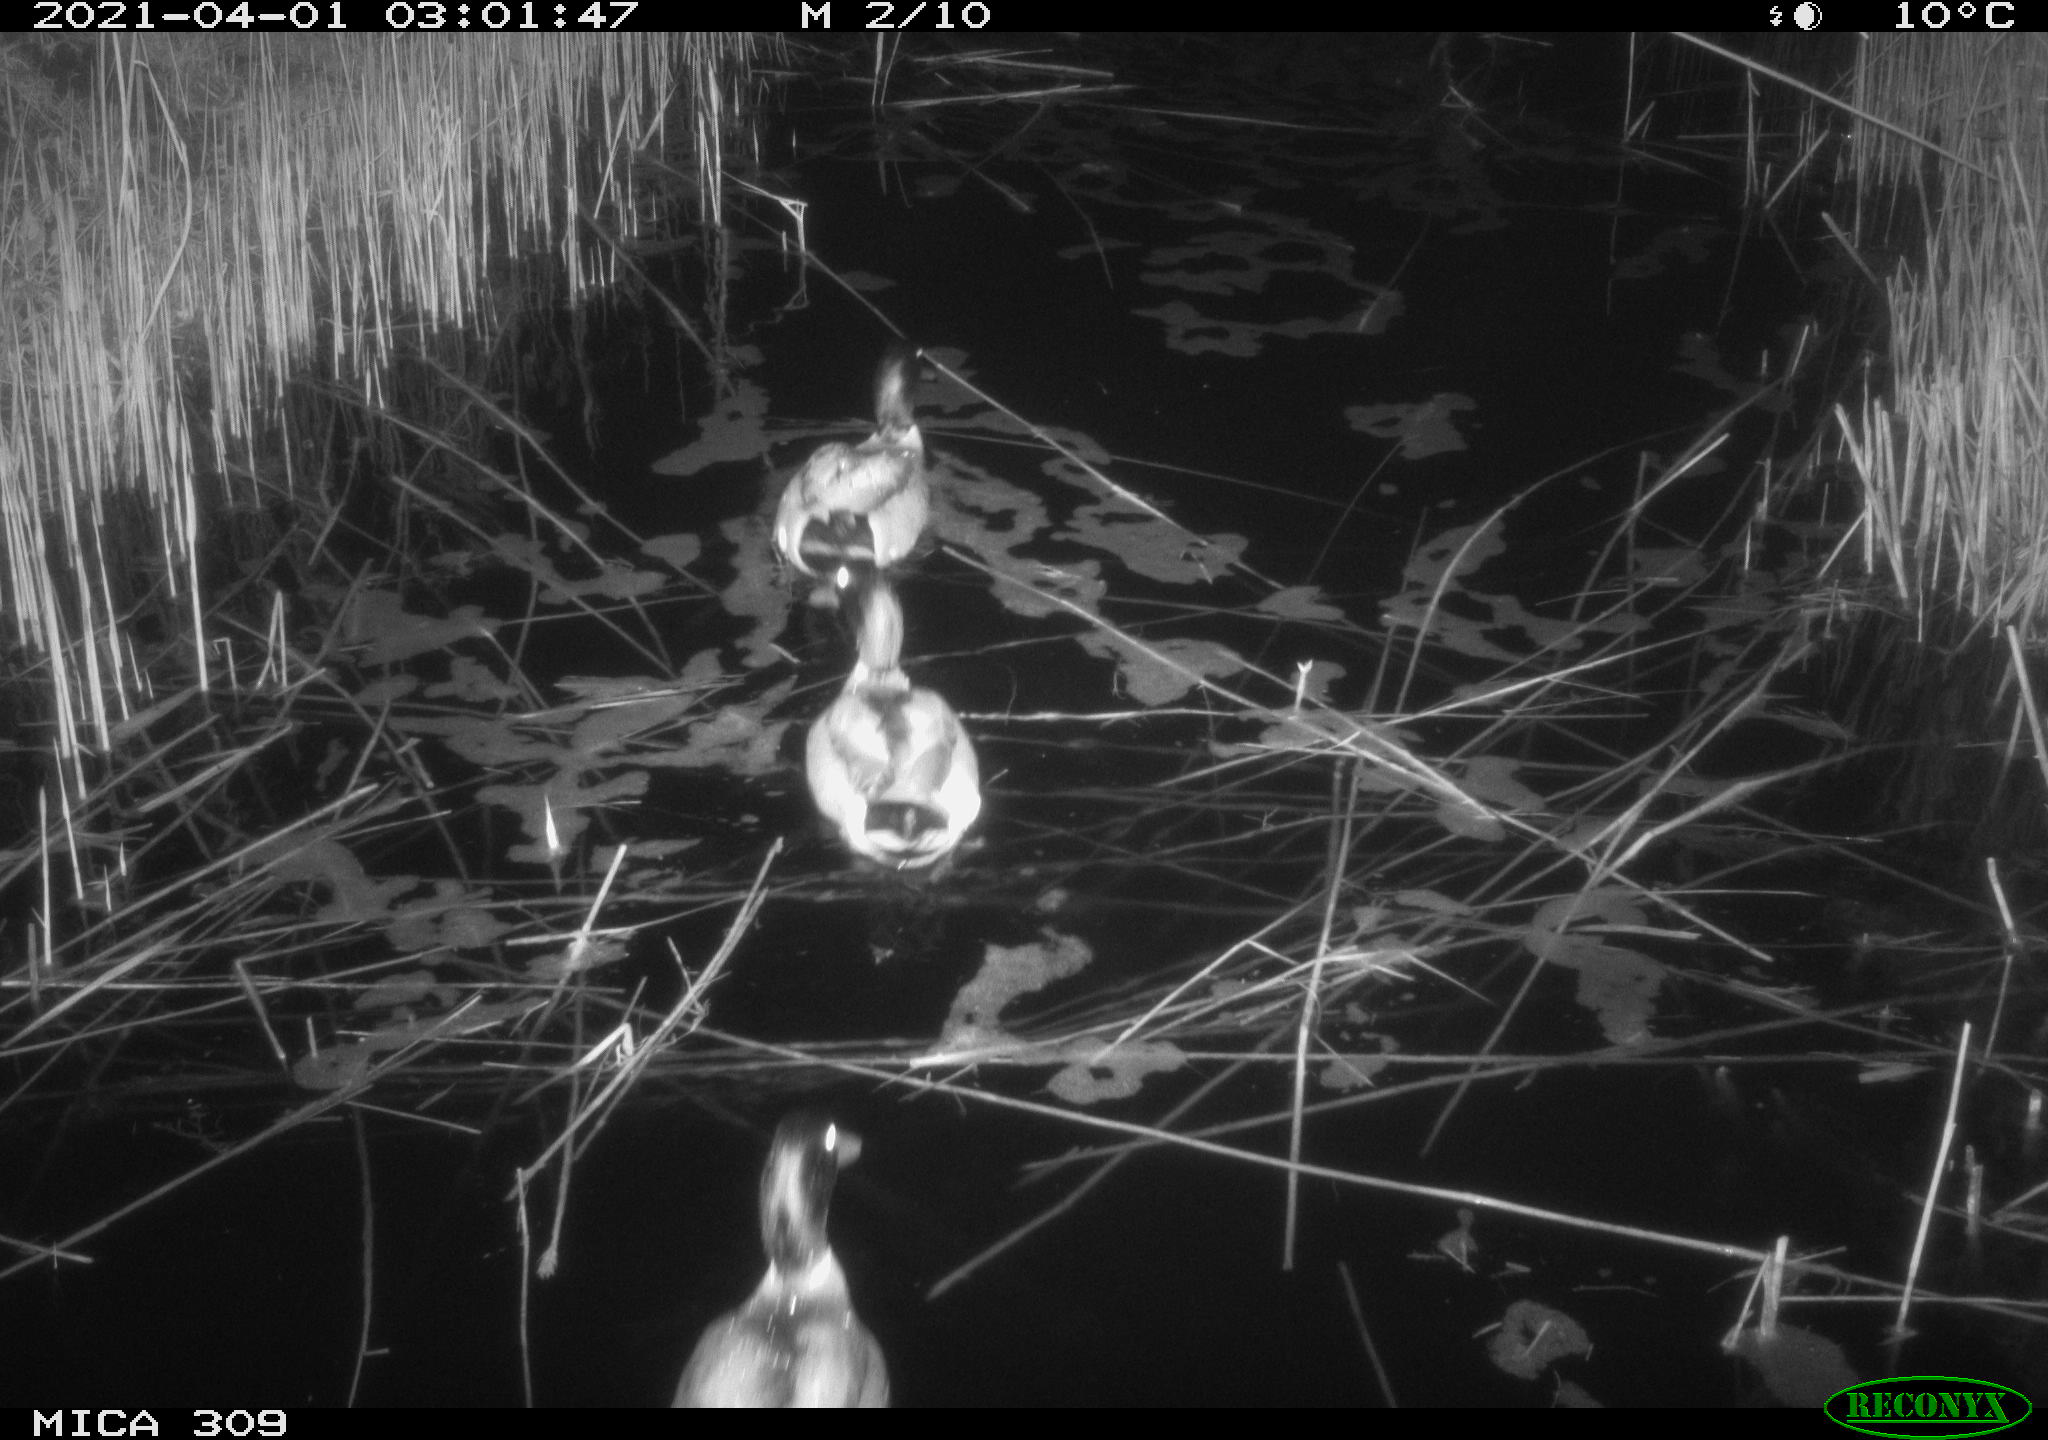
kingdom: Animalia
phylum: Chordata
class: Aves
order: Anseriformes
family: Anatidae
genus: Anas
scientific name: Anas platyrhynchos
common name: Mallard
